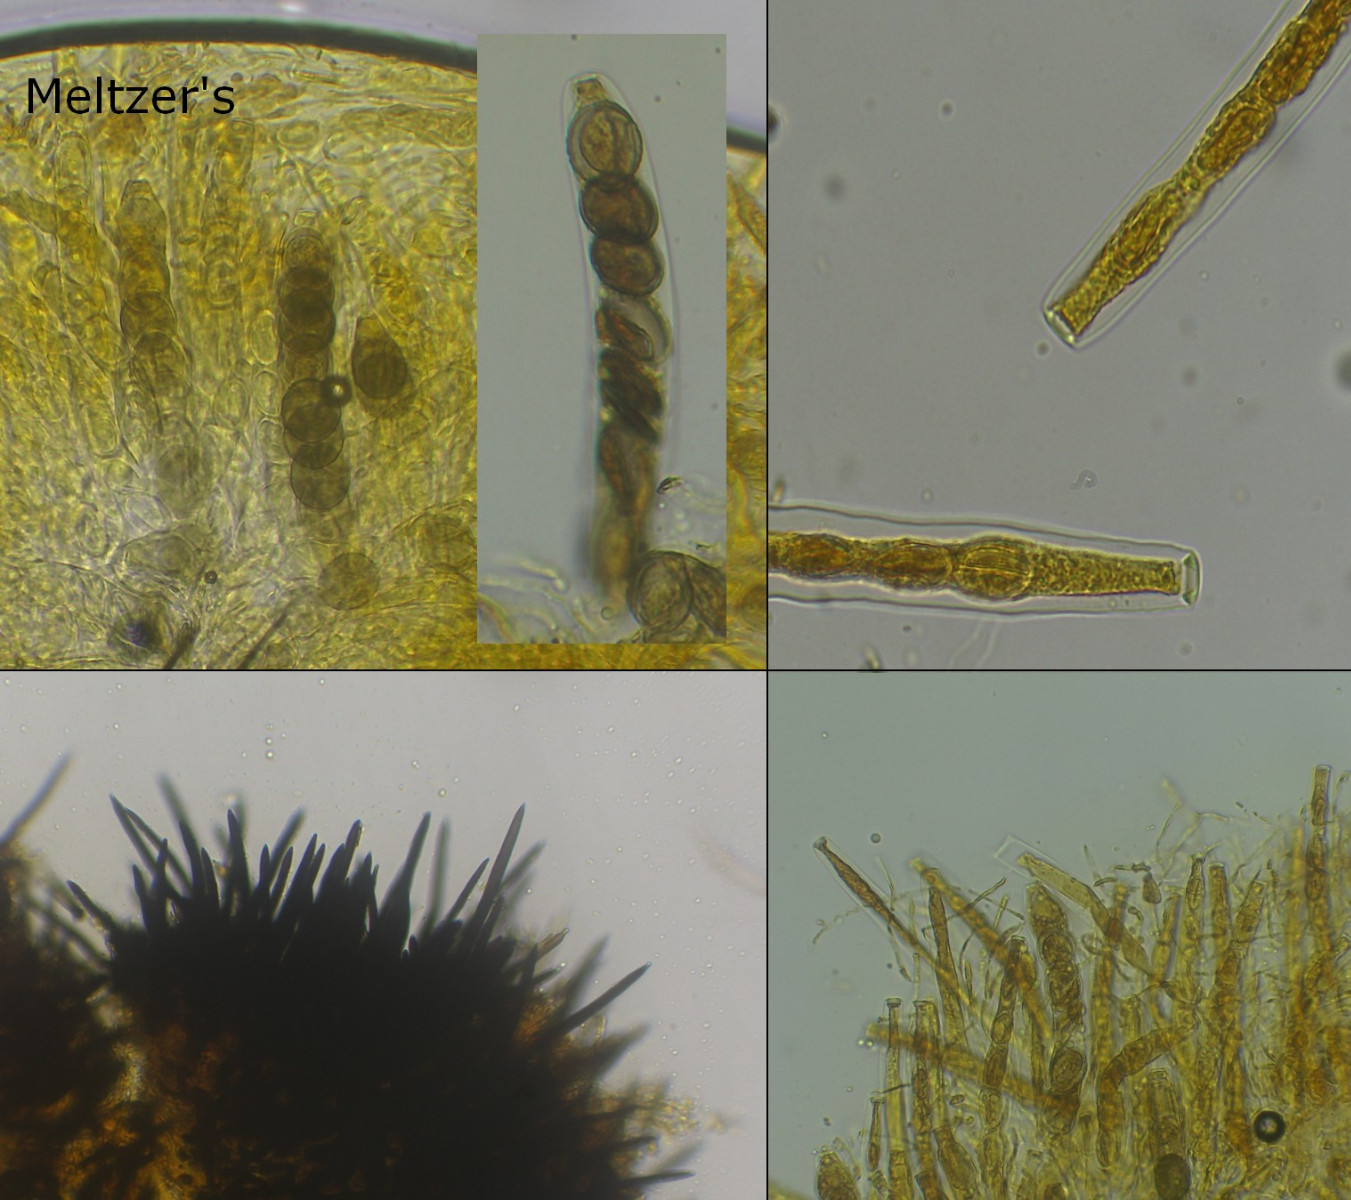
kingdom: Fungi
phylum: Ascomycota
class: Sordariomycetes
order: Coniochaetales
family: Coniochaetaceae
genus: Coniochaeta
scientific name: Coniochaeta scatigena
